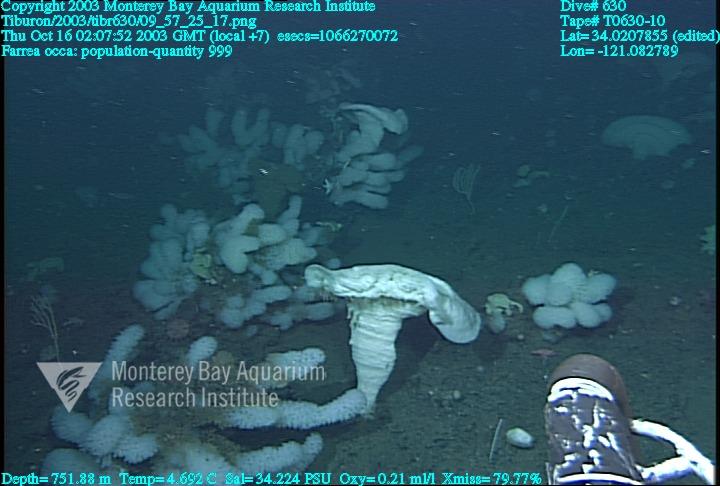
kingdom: Animalia
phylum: Porifera
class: Hexactinellida
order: Sceptrulophora
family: Farreidae
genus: Farrea
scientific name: Farrea occa
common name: Reversed glass sponge
